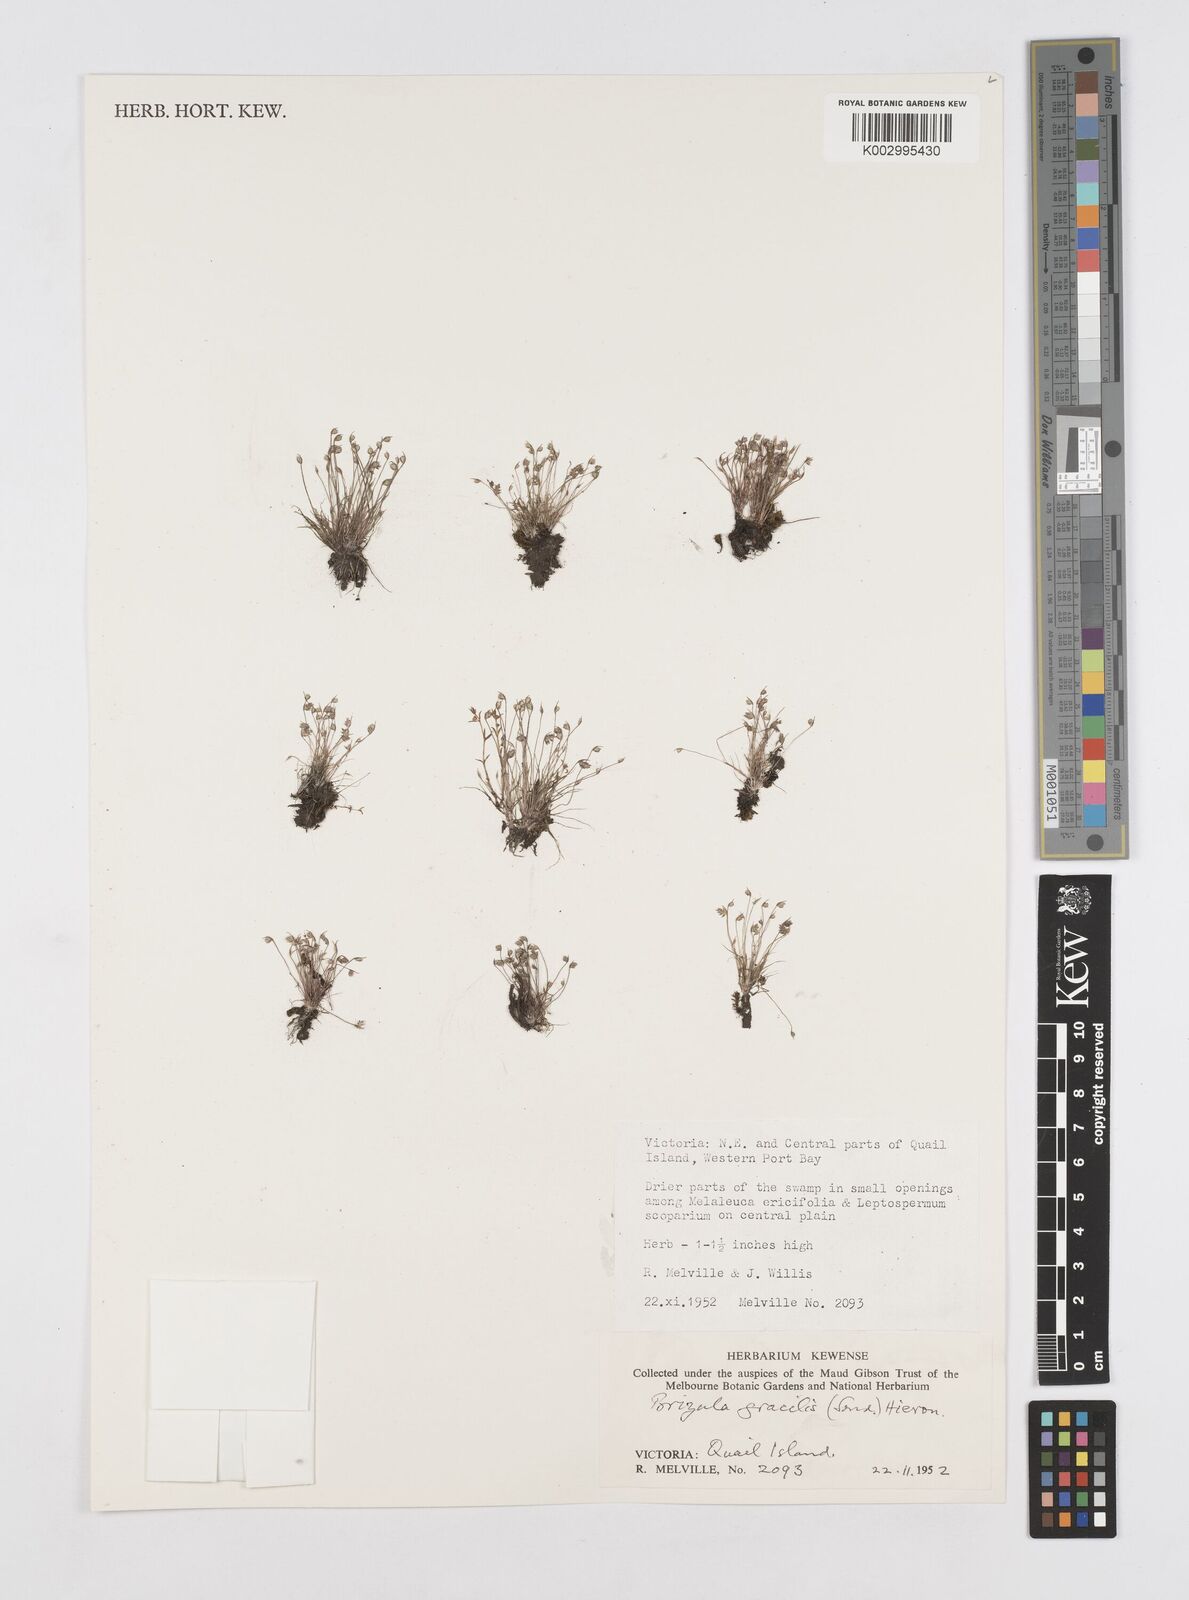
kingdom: Plantae
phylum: Tracheophyta
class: Liliopsida
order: Poales
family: Restionaceae
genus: Aphelia
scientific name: Aphelia gracilis
